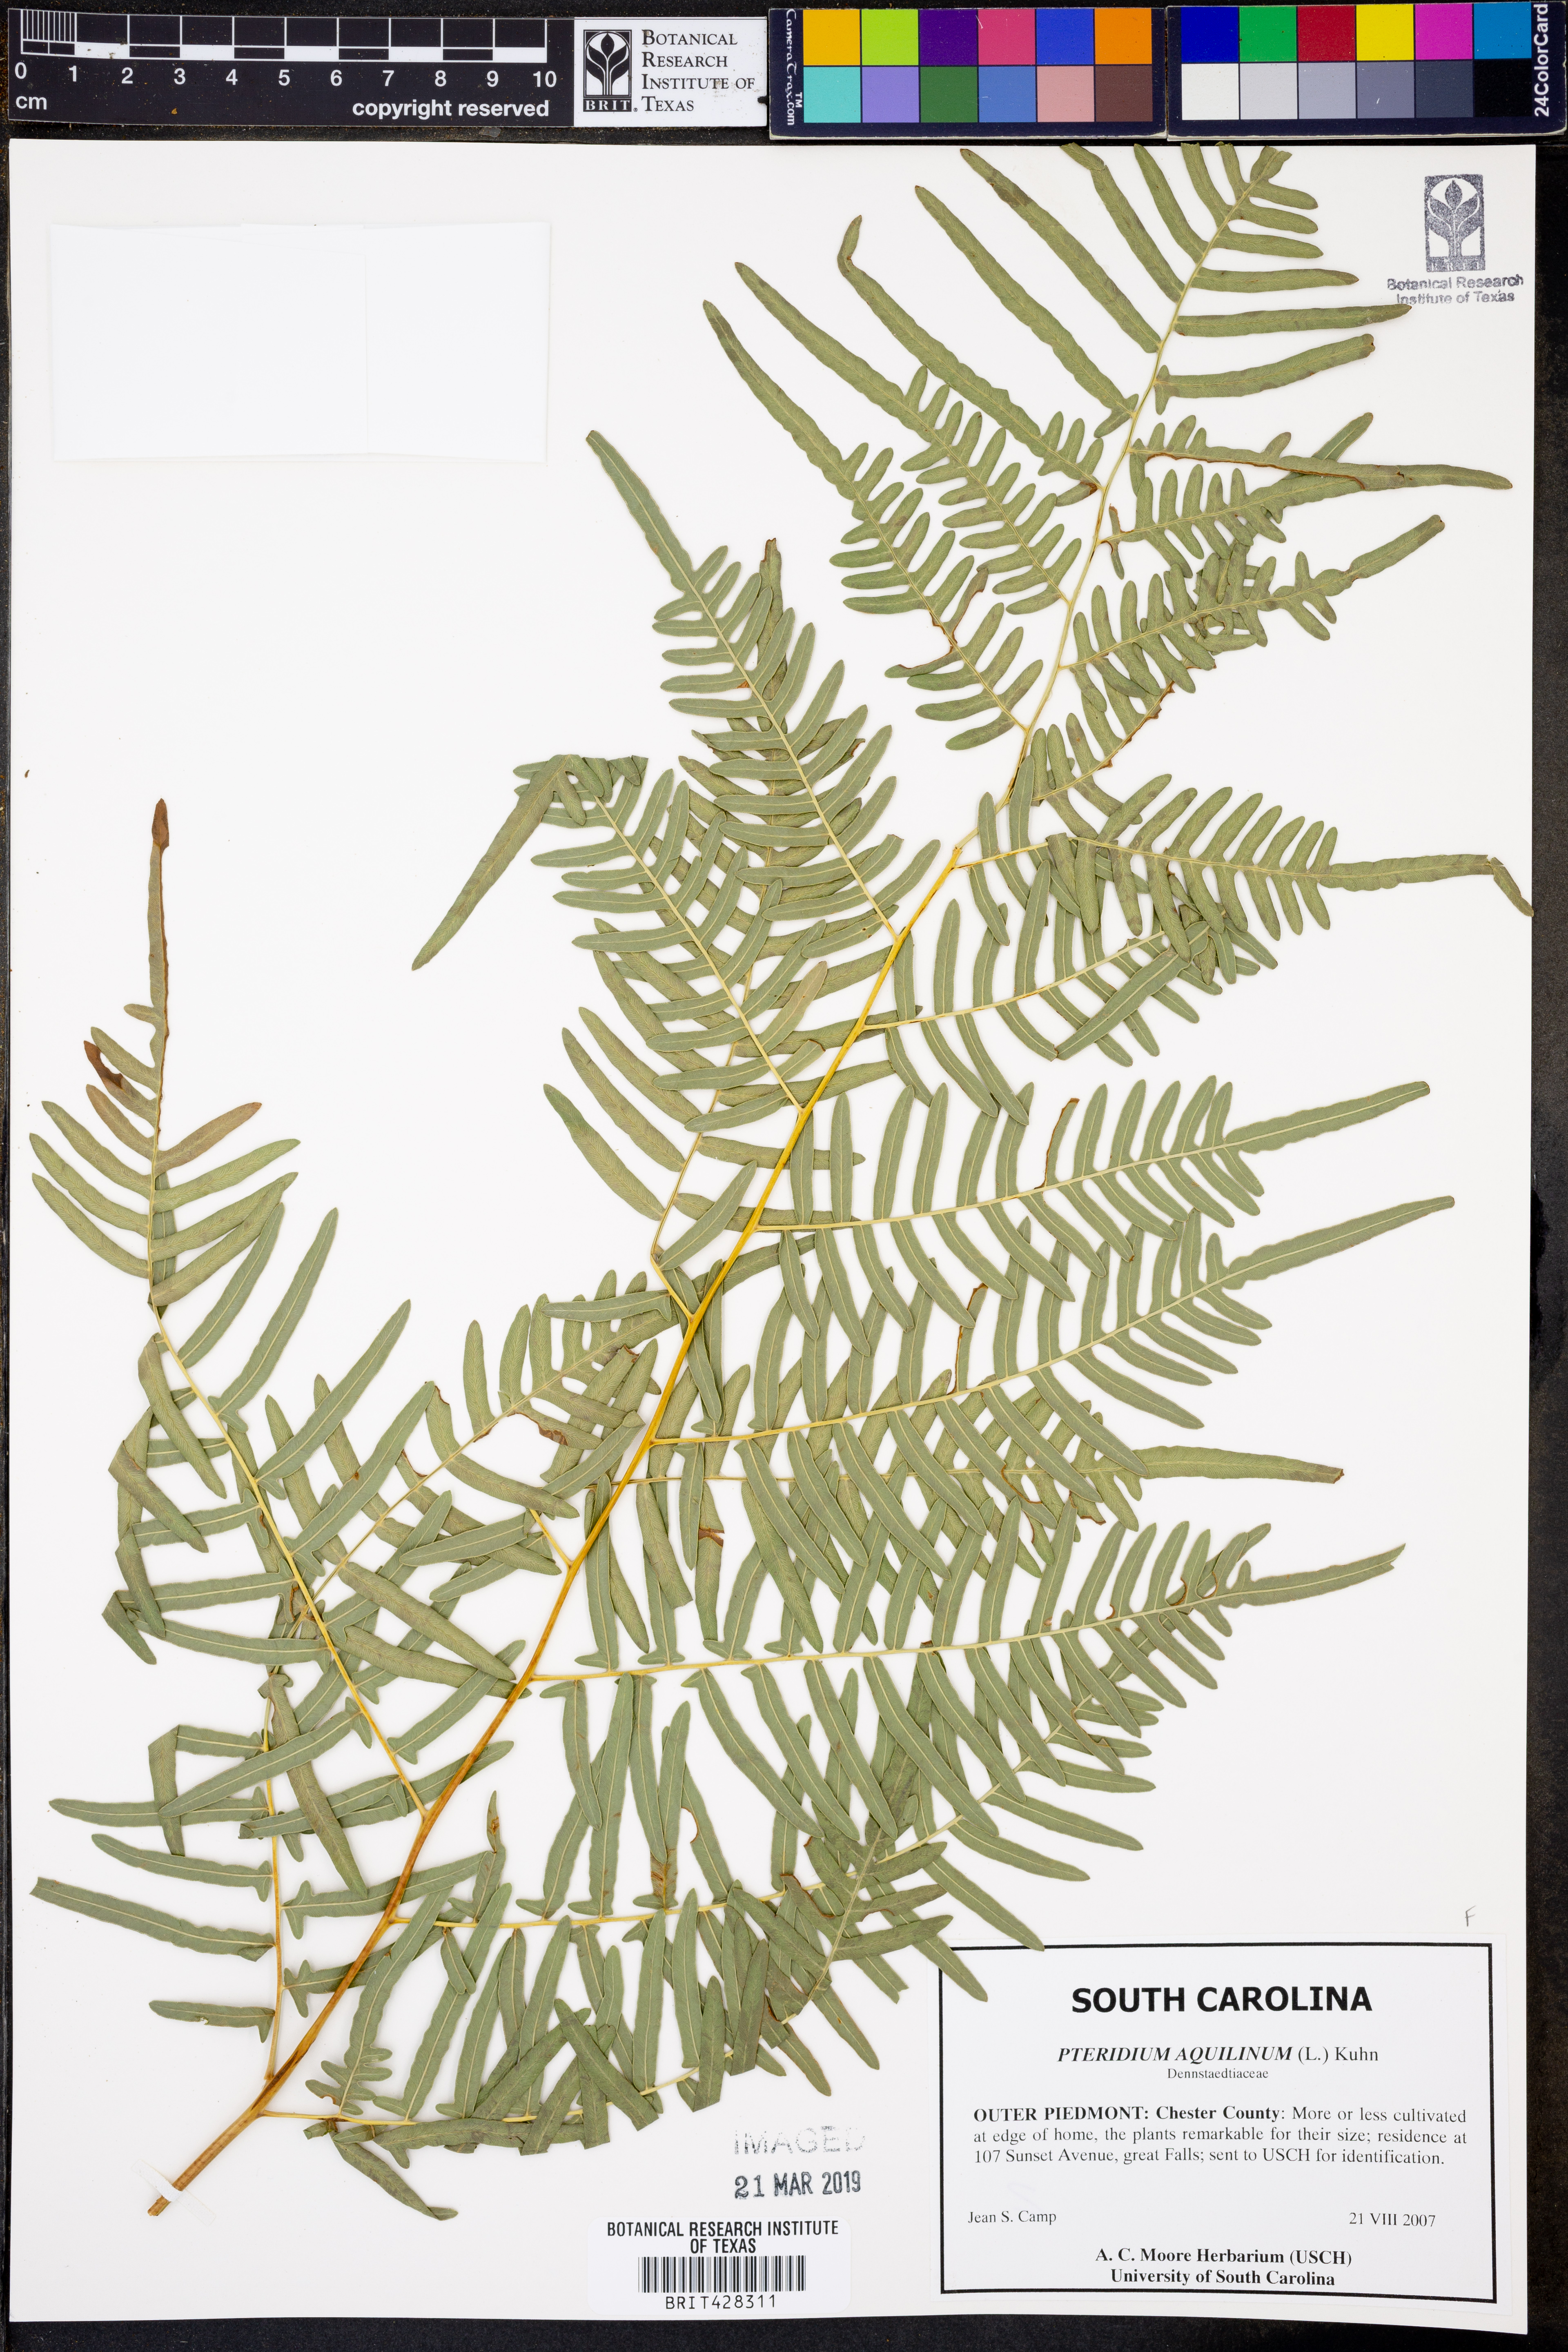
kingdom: Plantae
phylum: Tracheophyta
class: Polypodiopsida
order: Polypodiales
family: Dennstaedtiaceae
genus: Pteridium
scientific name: Pteridium aquilinum
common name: Bracken
